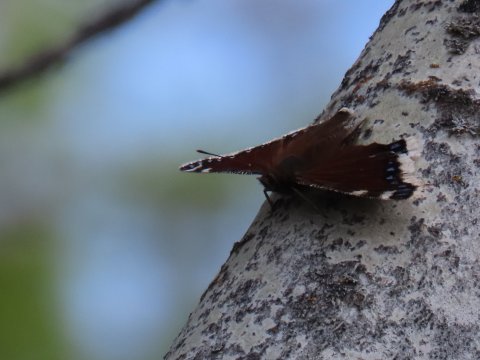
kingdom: Animalia
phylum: Arthropoda
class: Insecta
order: Lepidoptera
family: Nymphalidae
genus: Nymphalis
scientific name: Nymphalis antiopa
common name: Mourning Cloak
